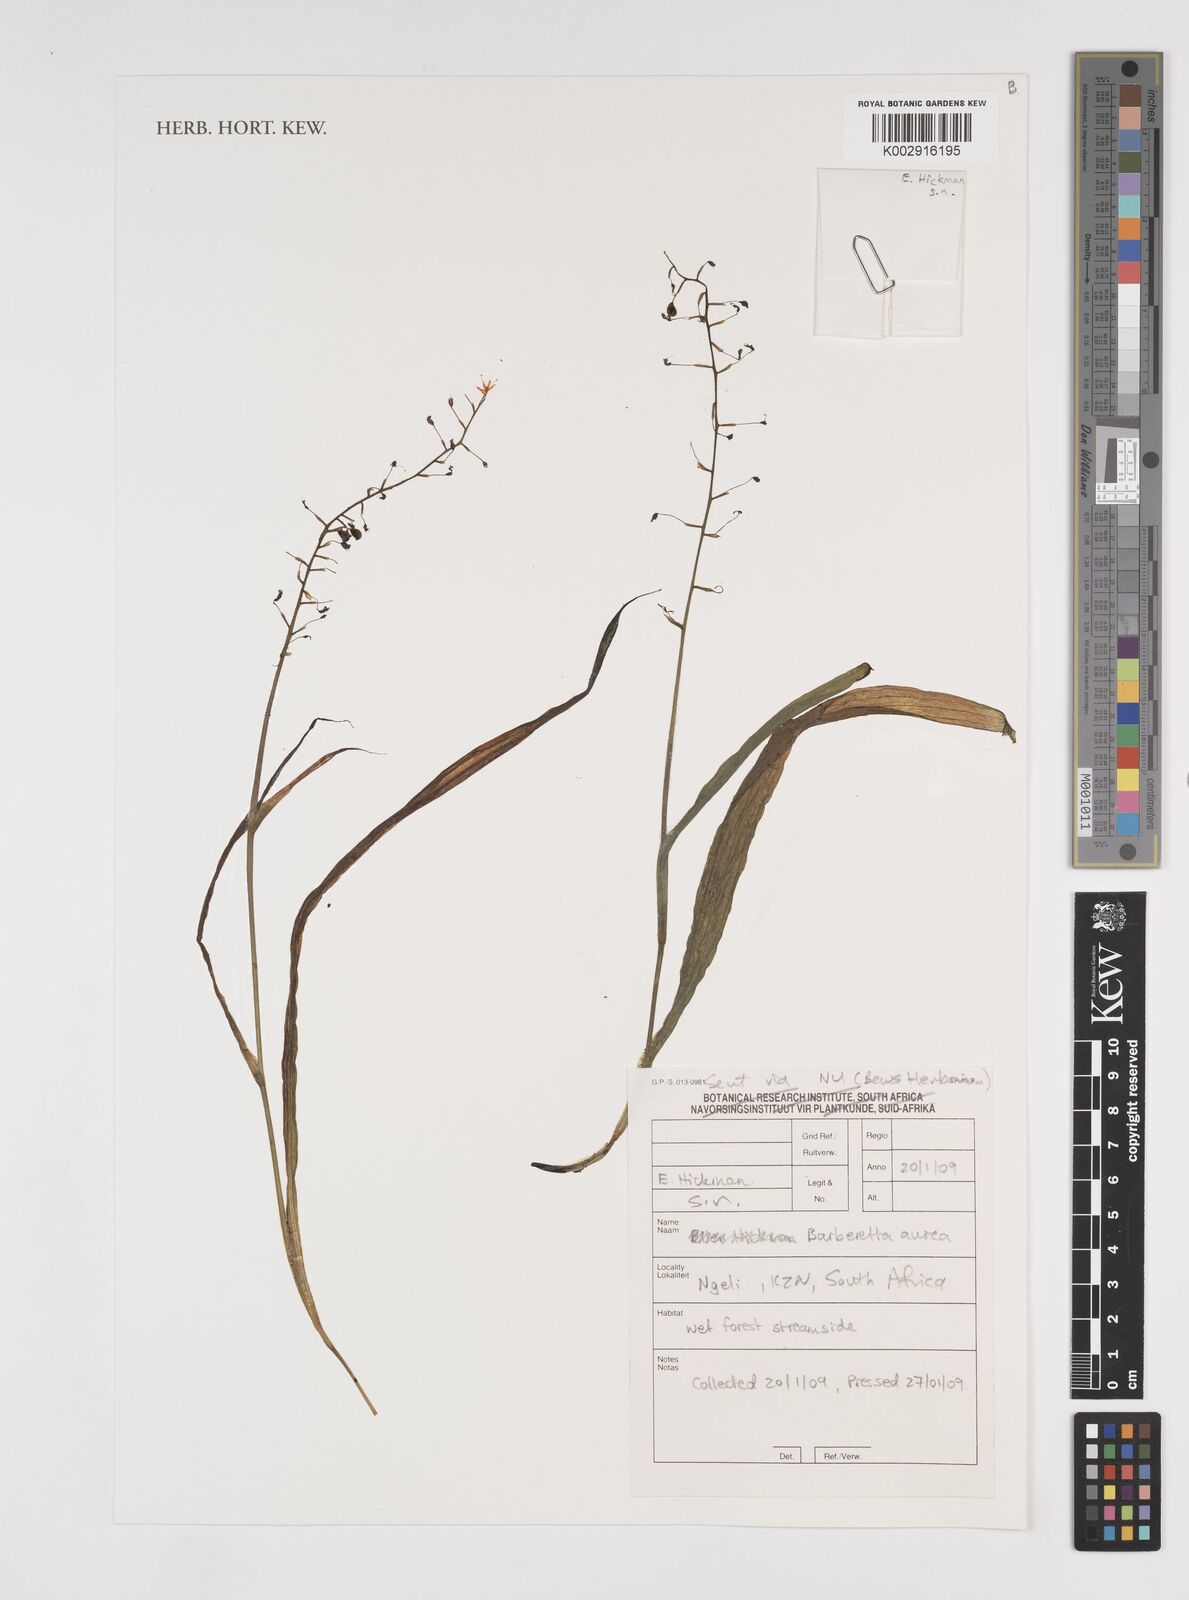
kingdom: Plantae
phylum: Tracheophyta
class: Liliopsida
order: Commelinales
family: Haemodoraceae
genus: Barberetta
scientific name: Barberetta aurea
